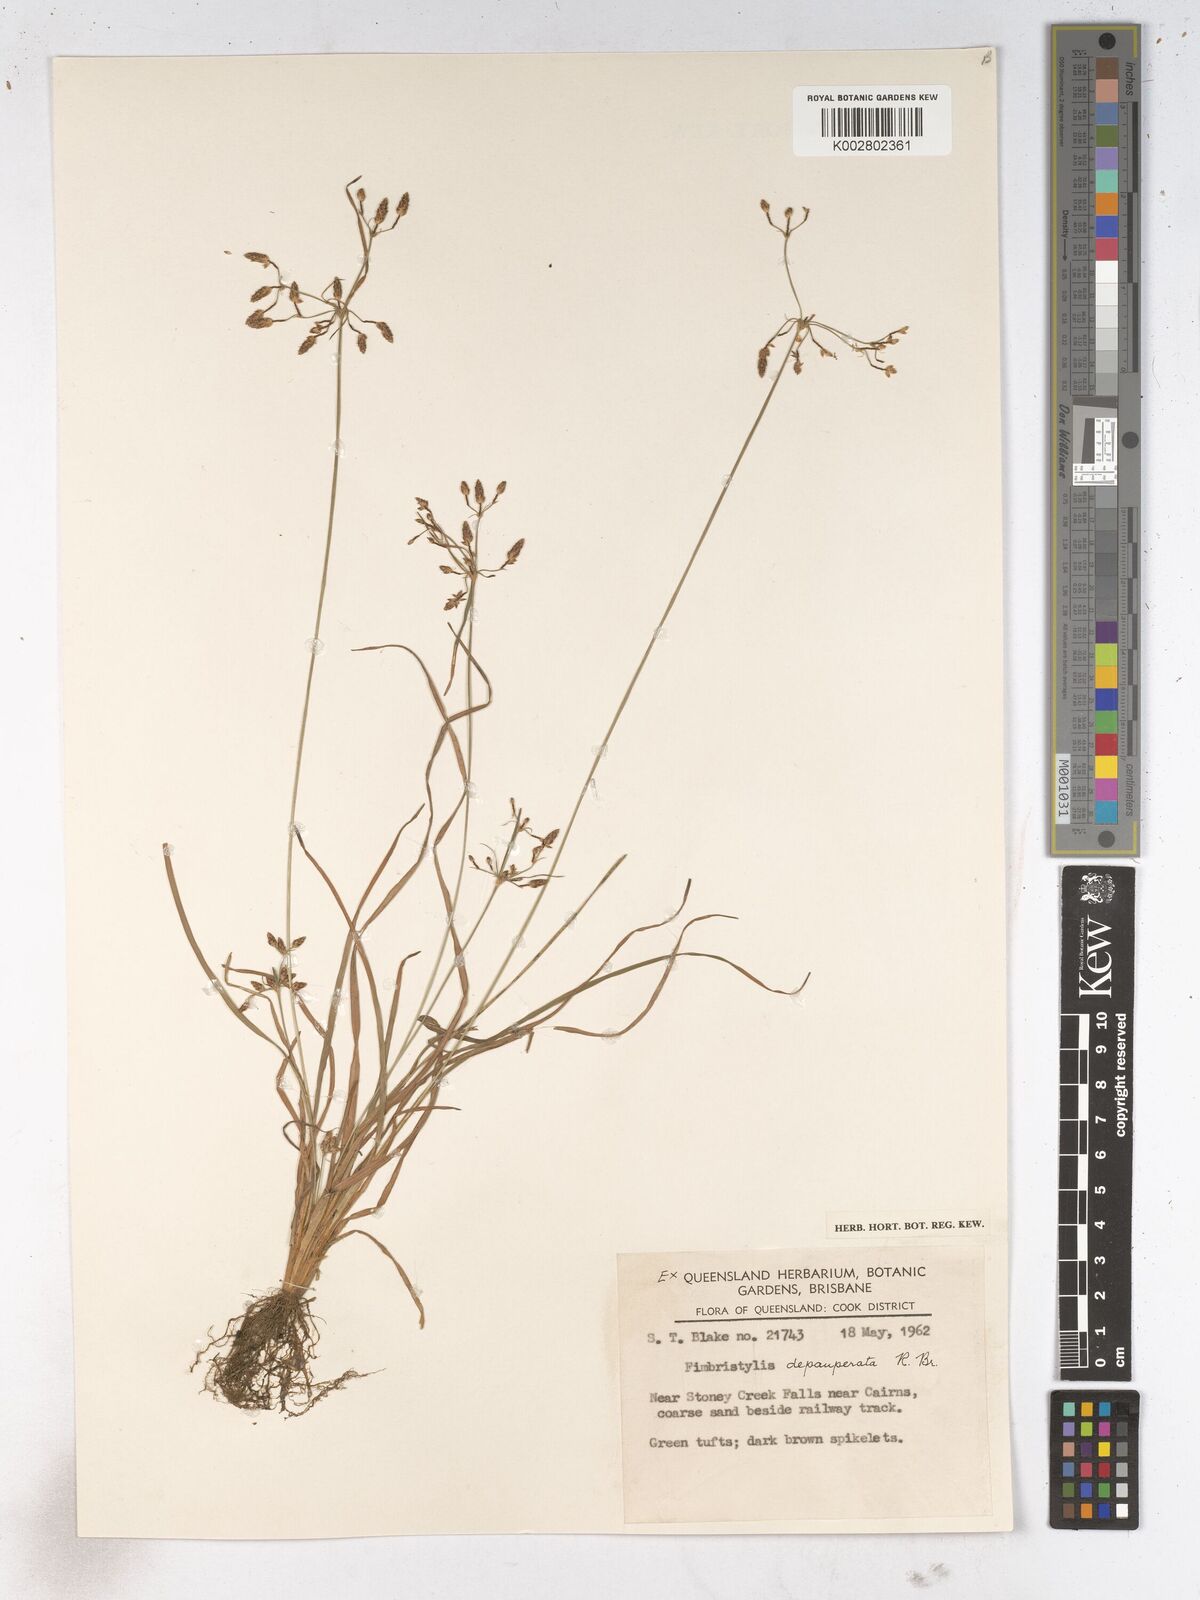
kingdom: Plantae
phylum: Tracheophyta
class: Liliopsida
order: Poales
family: Cyperaceae
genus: Fimbristylis
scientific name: Fimbristylis dichotoma
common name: Forked fimbry
